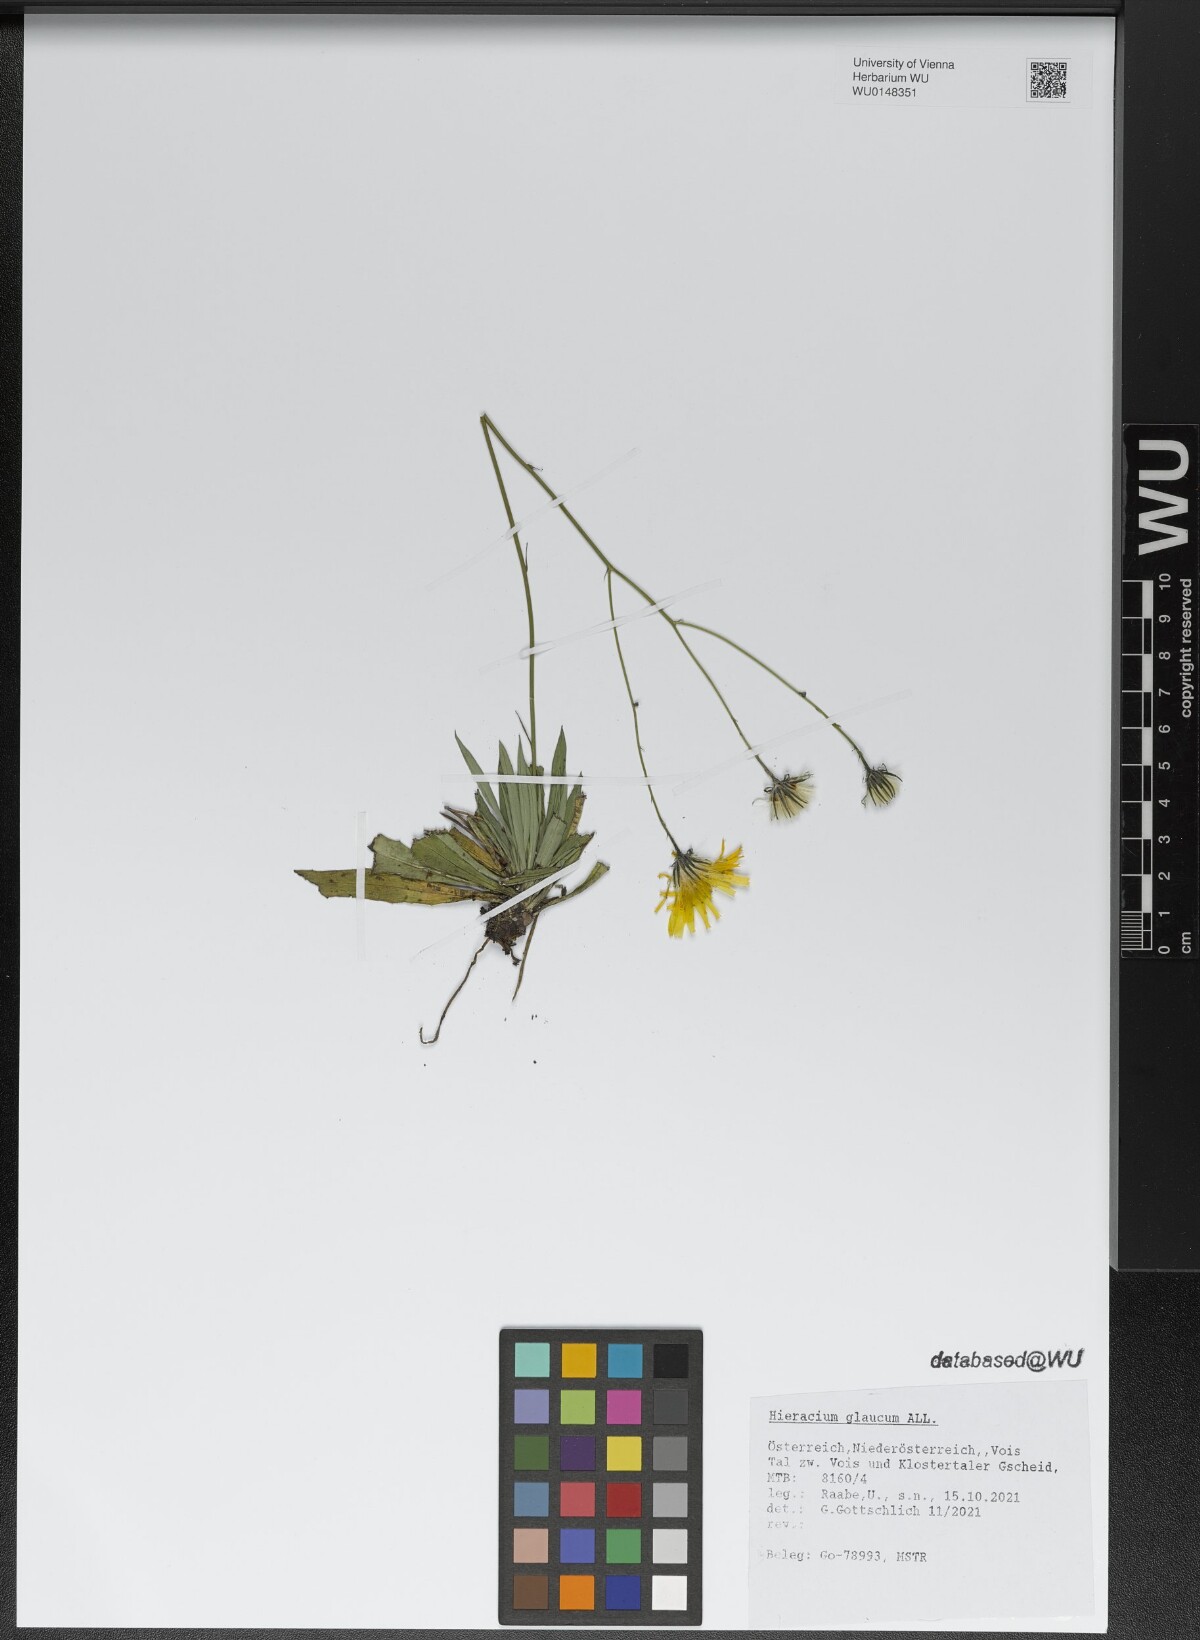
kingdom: Plantae
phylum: Tracheophyta
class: Magnoliopsida
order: Asterales
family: Asteraceae
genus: Hieracium
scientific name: Hieracium glaucum
